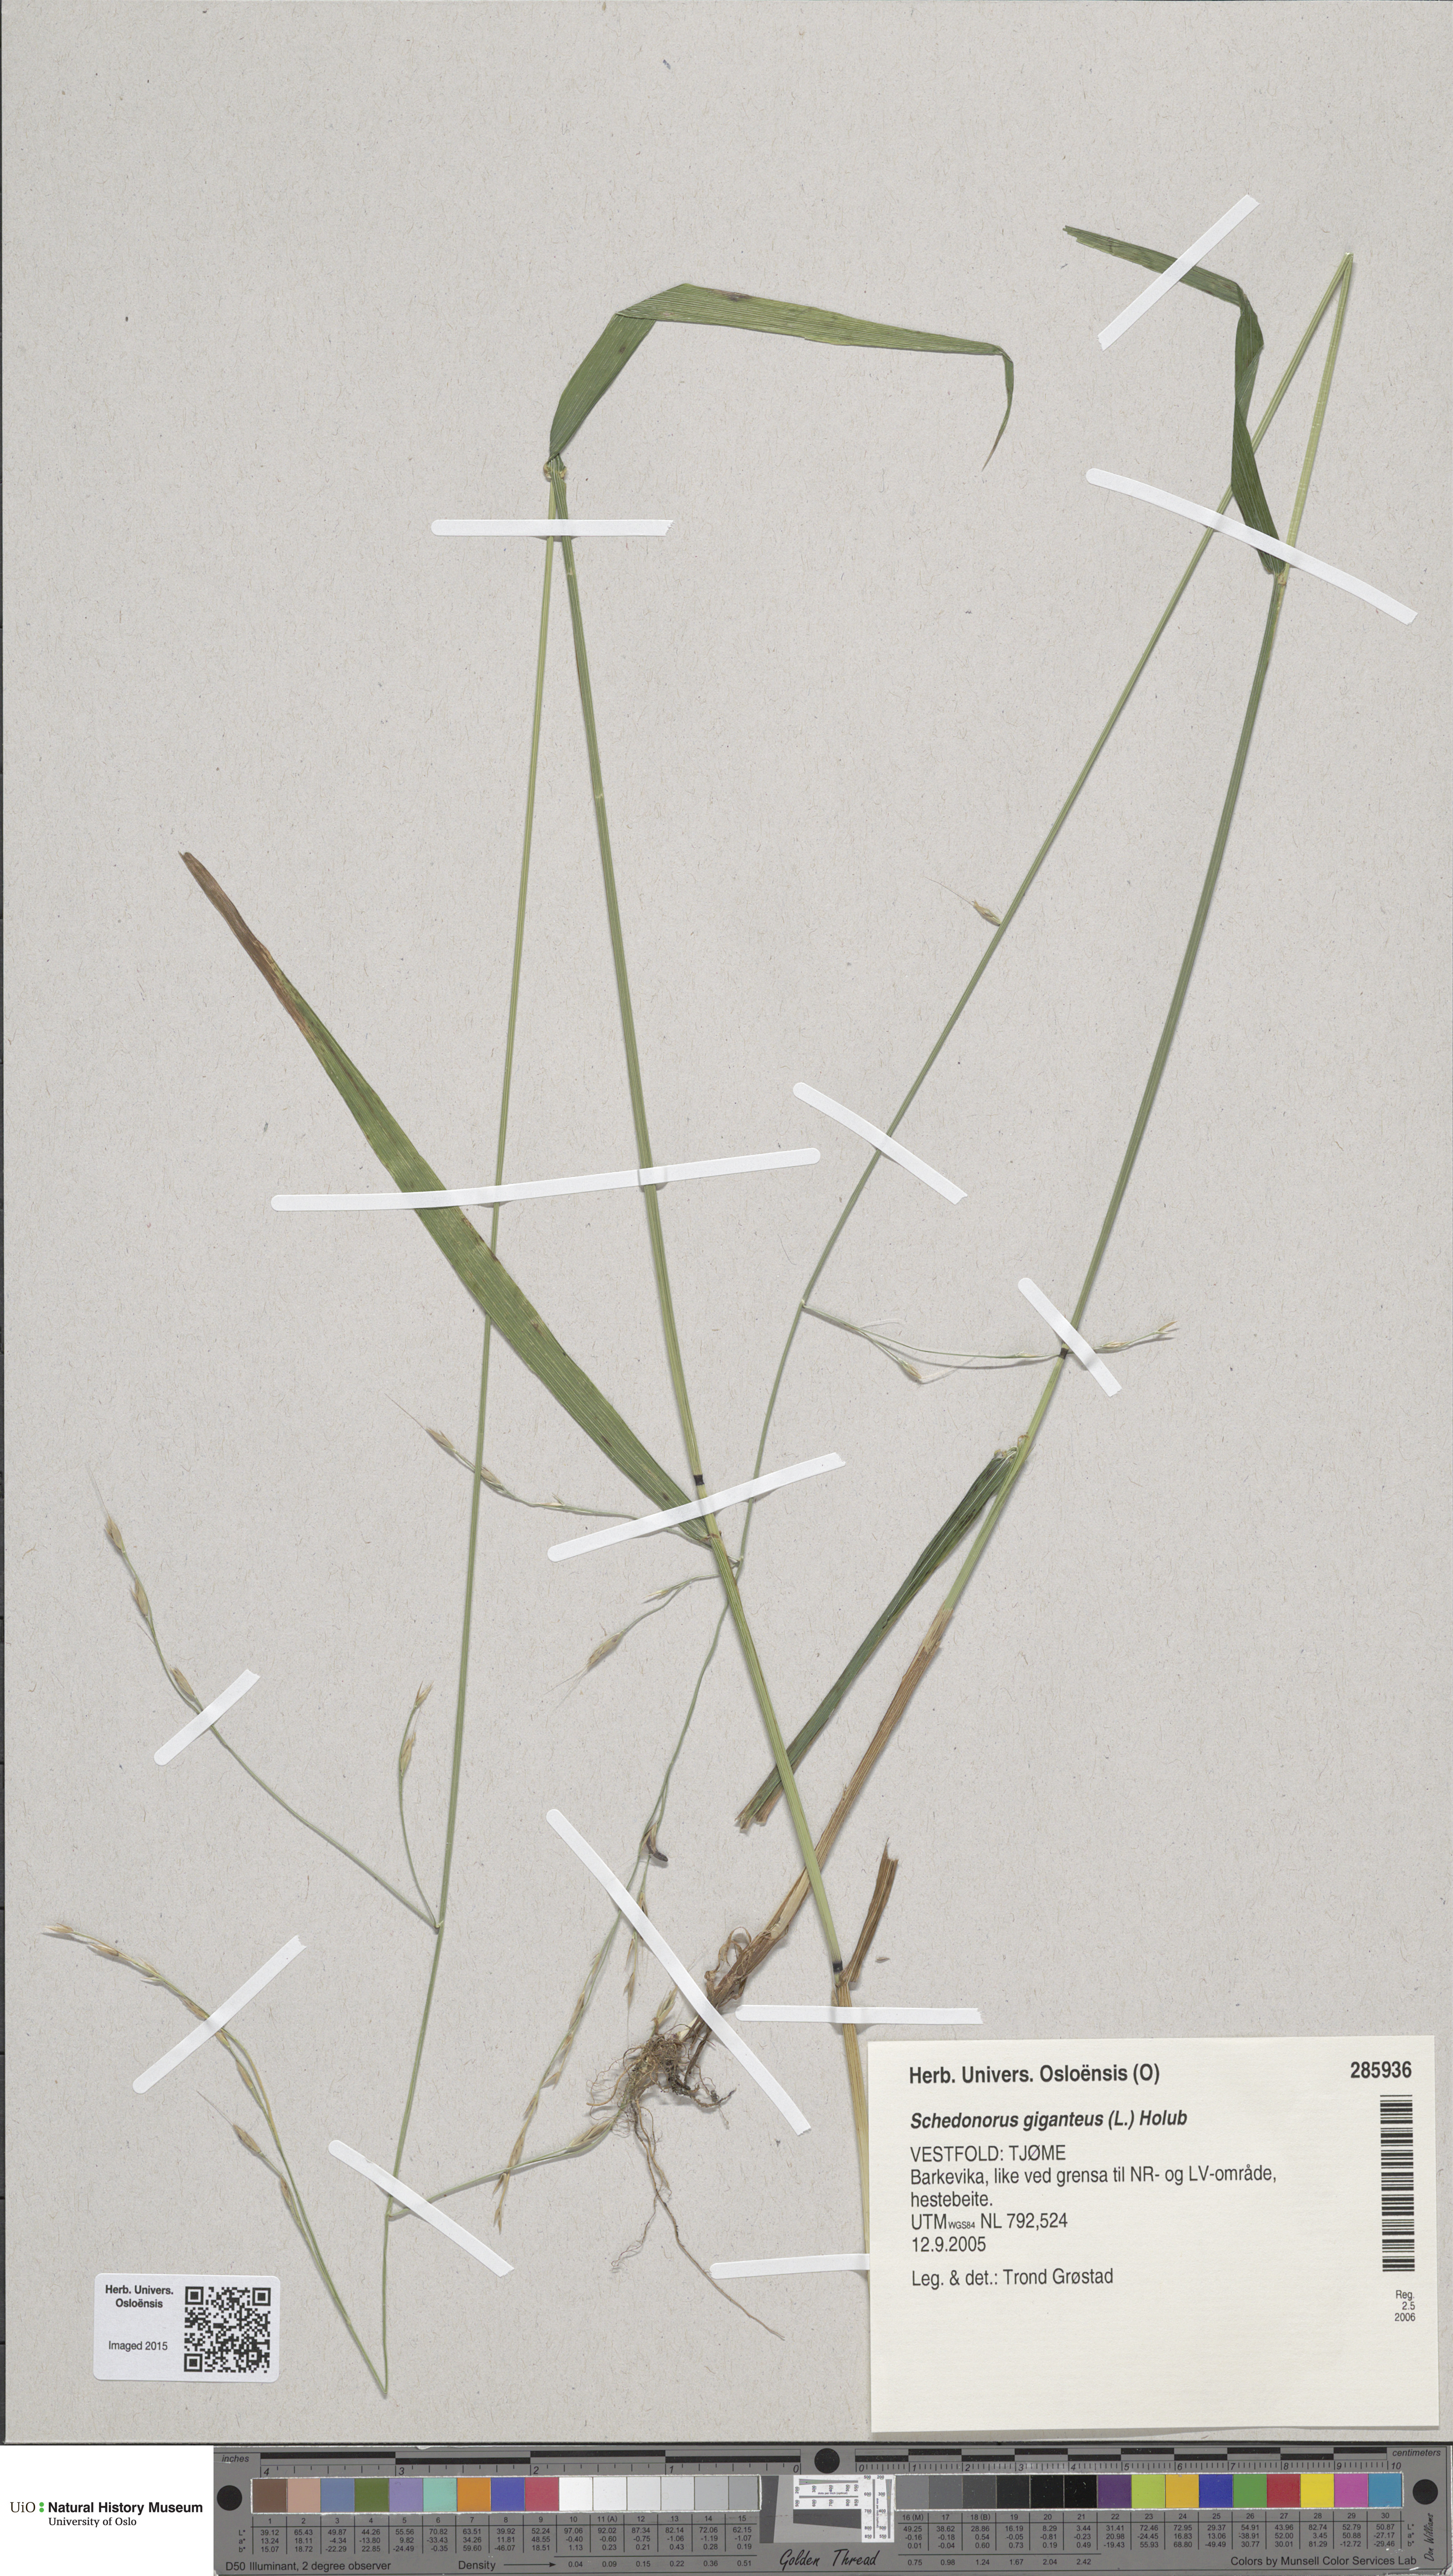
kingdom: Plantae
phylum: Tracheophyta
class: Liliopsida
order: Poales
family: Poaceae
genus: Lolium
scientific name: Lolium giganteum
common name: Giant fescue
